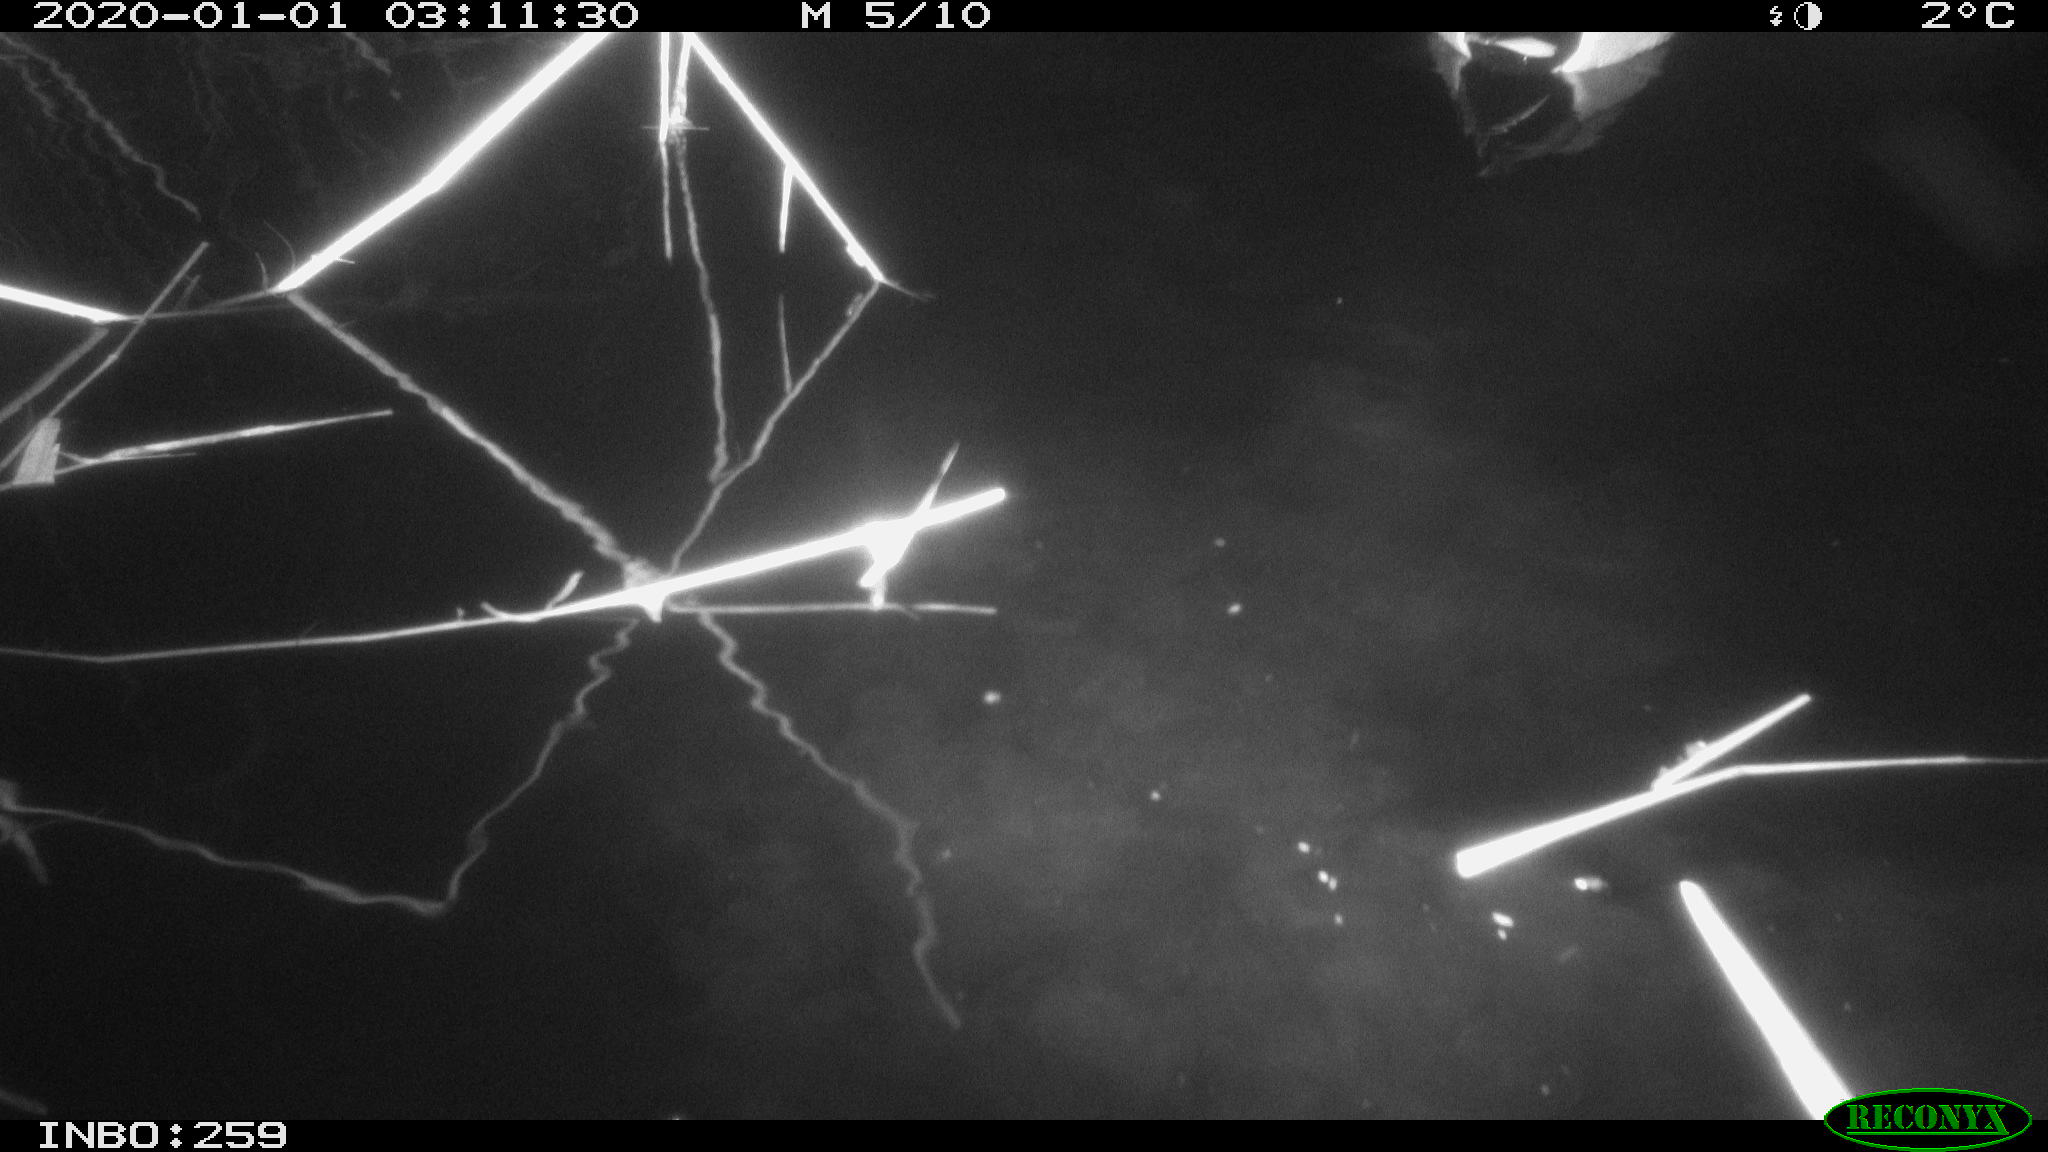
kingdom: Animalia
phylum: Chordata
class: Aves
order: Anseriformes
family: Anatidae
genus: Anas
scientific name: Anas platyrhynchos
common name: Mallard
